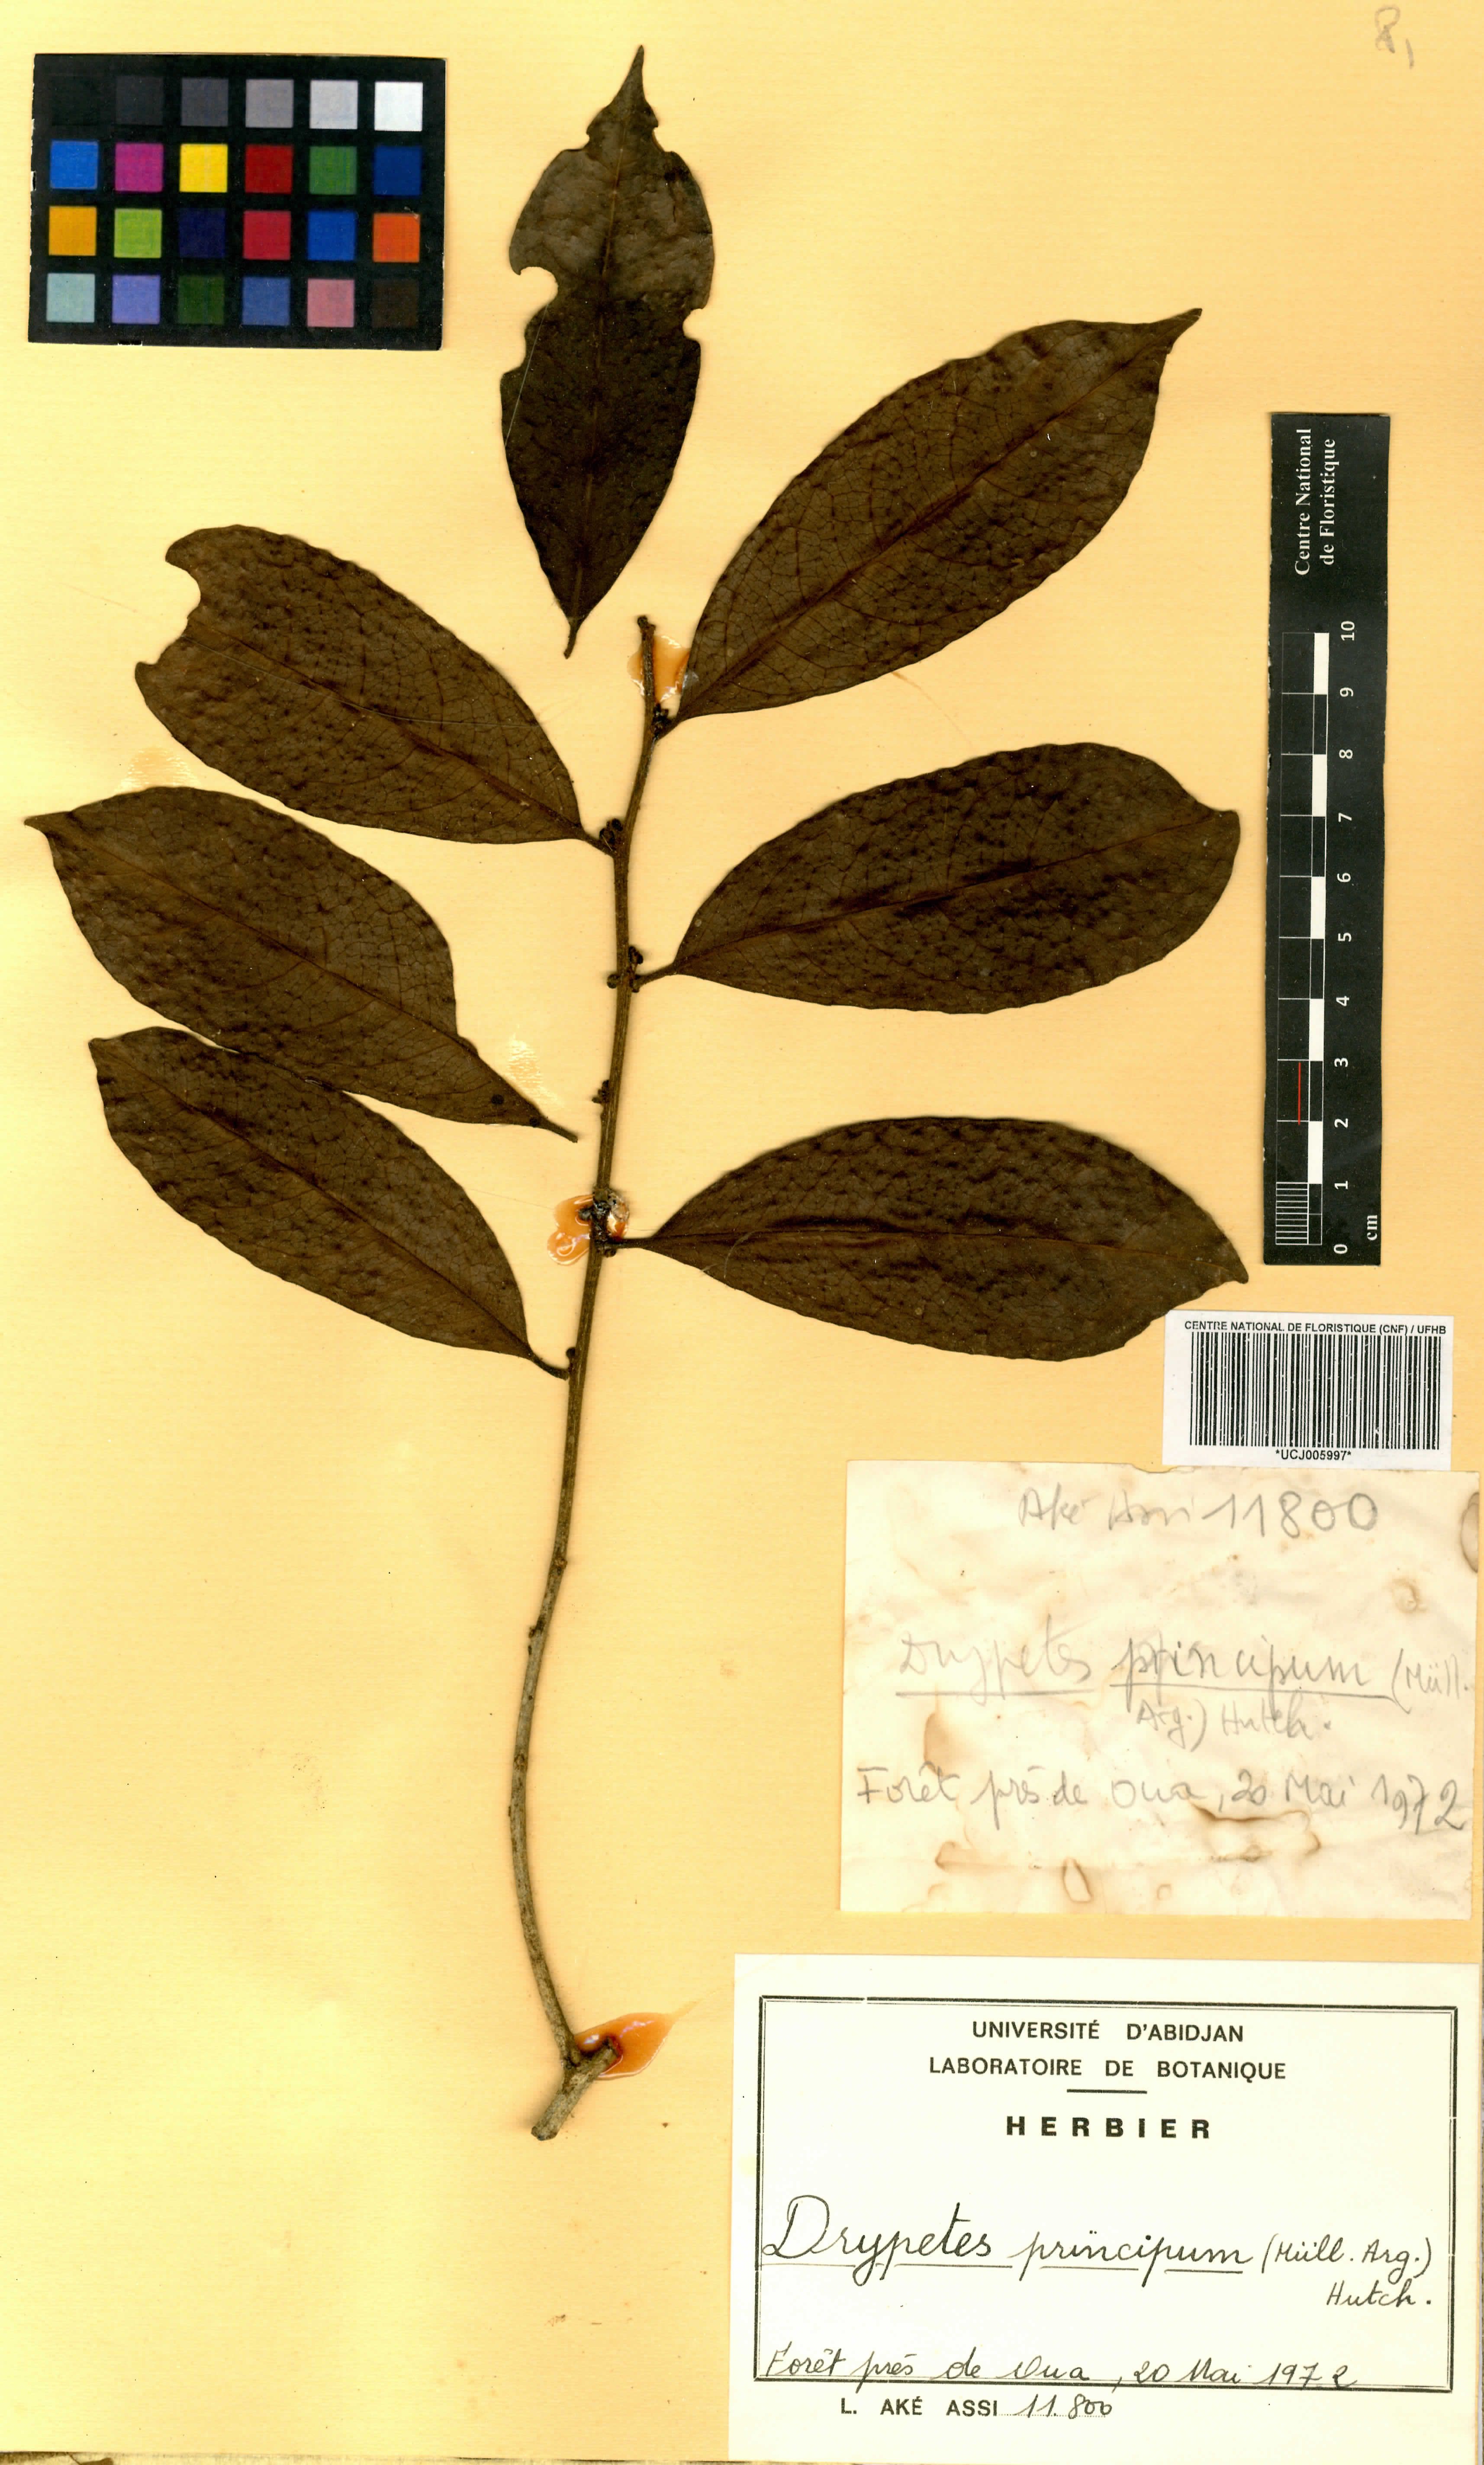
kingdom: Plantae
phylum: Tracheophyta
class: Magnoliopsida
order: Malpighiales
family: Putranjivaceae
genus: Drypetes
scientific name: Drypetes principum
